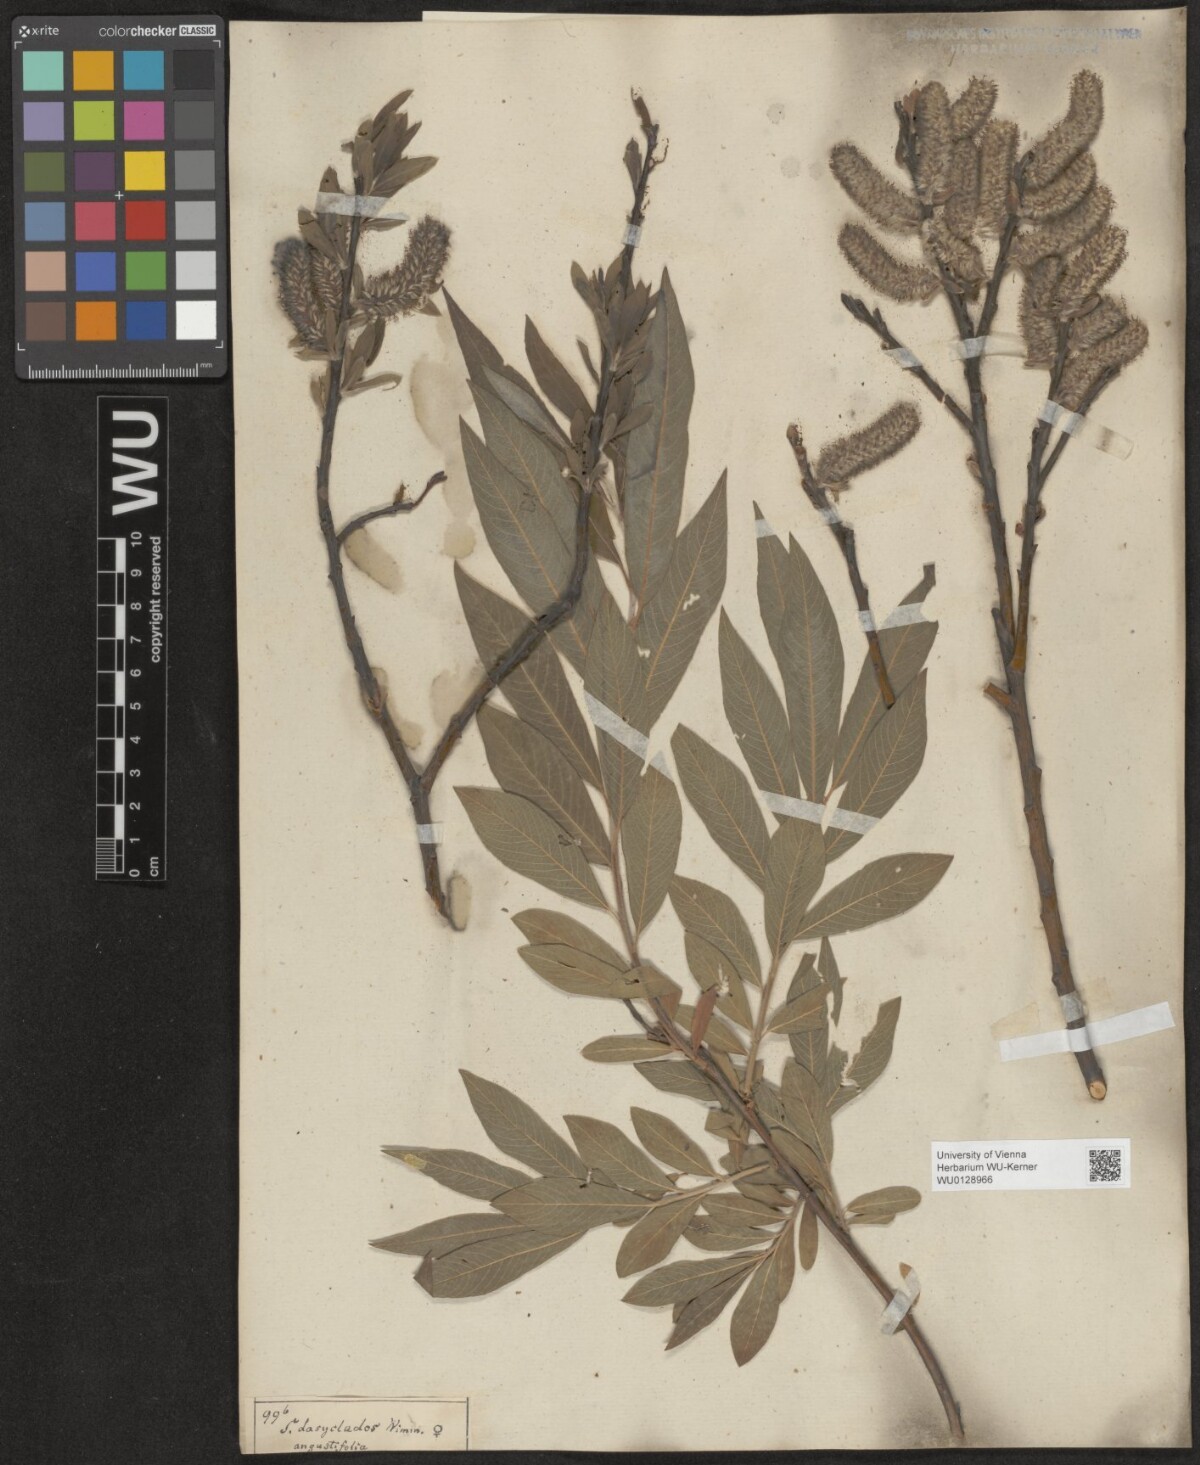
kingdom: Plantae
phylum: Tracheophyta
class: Magnoliopsida
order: Malpighiales
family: Salicaceae
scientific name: Salicaceae
